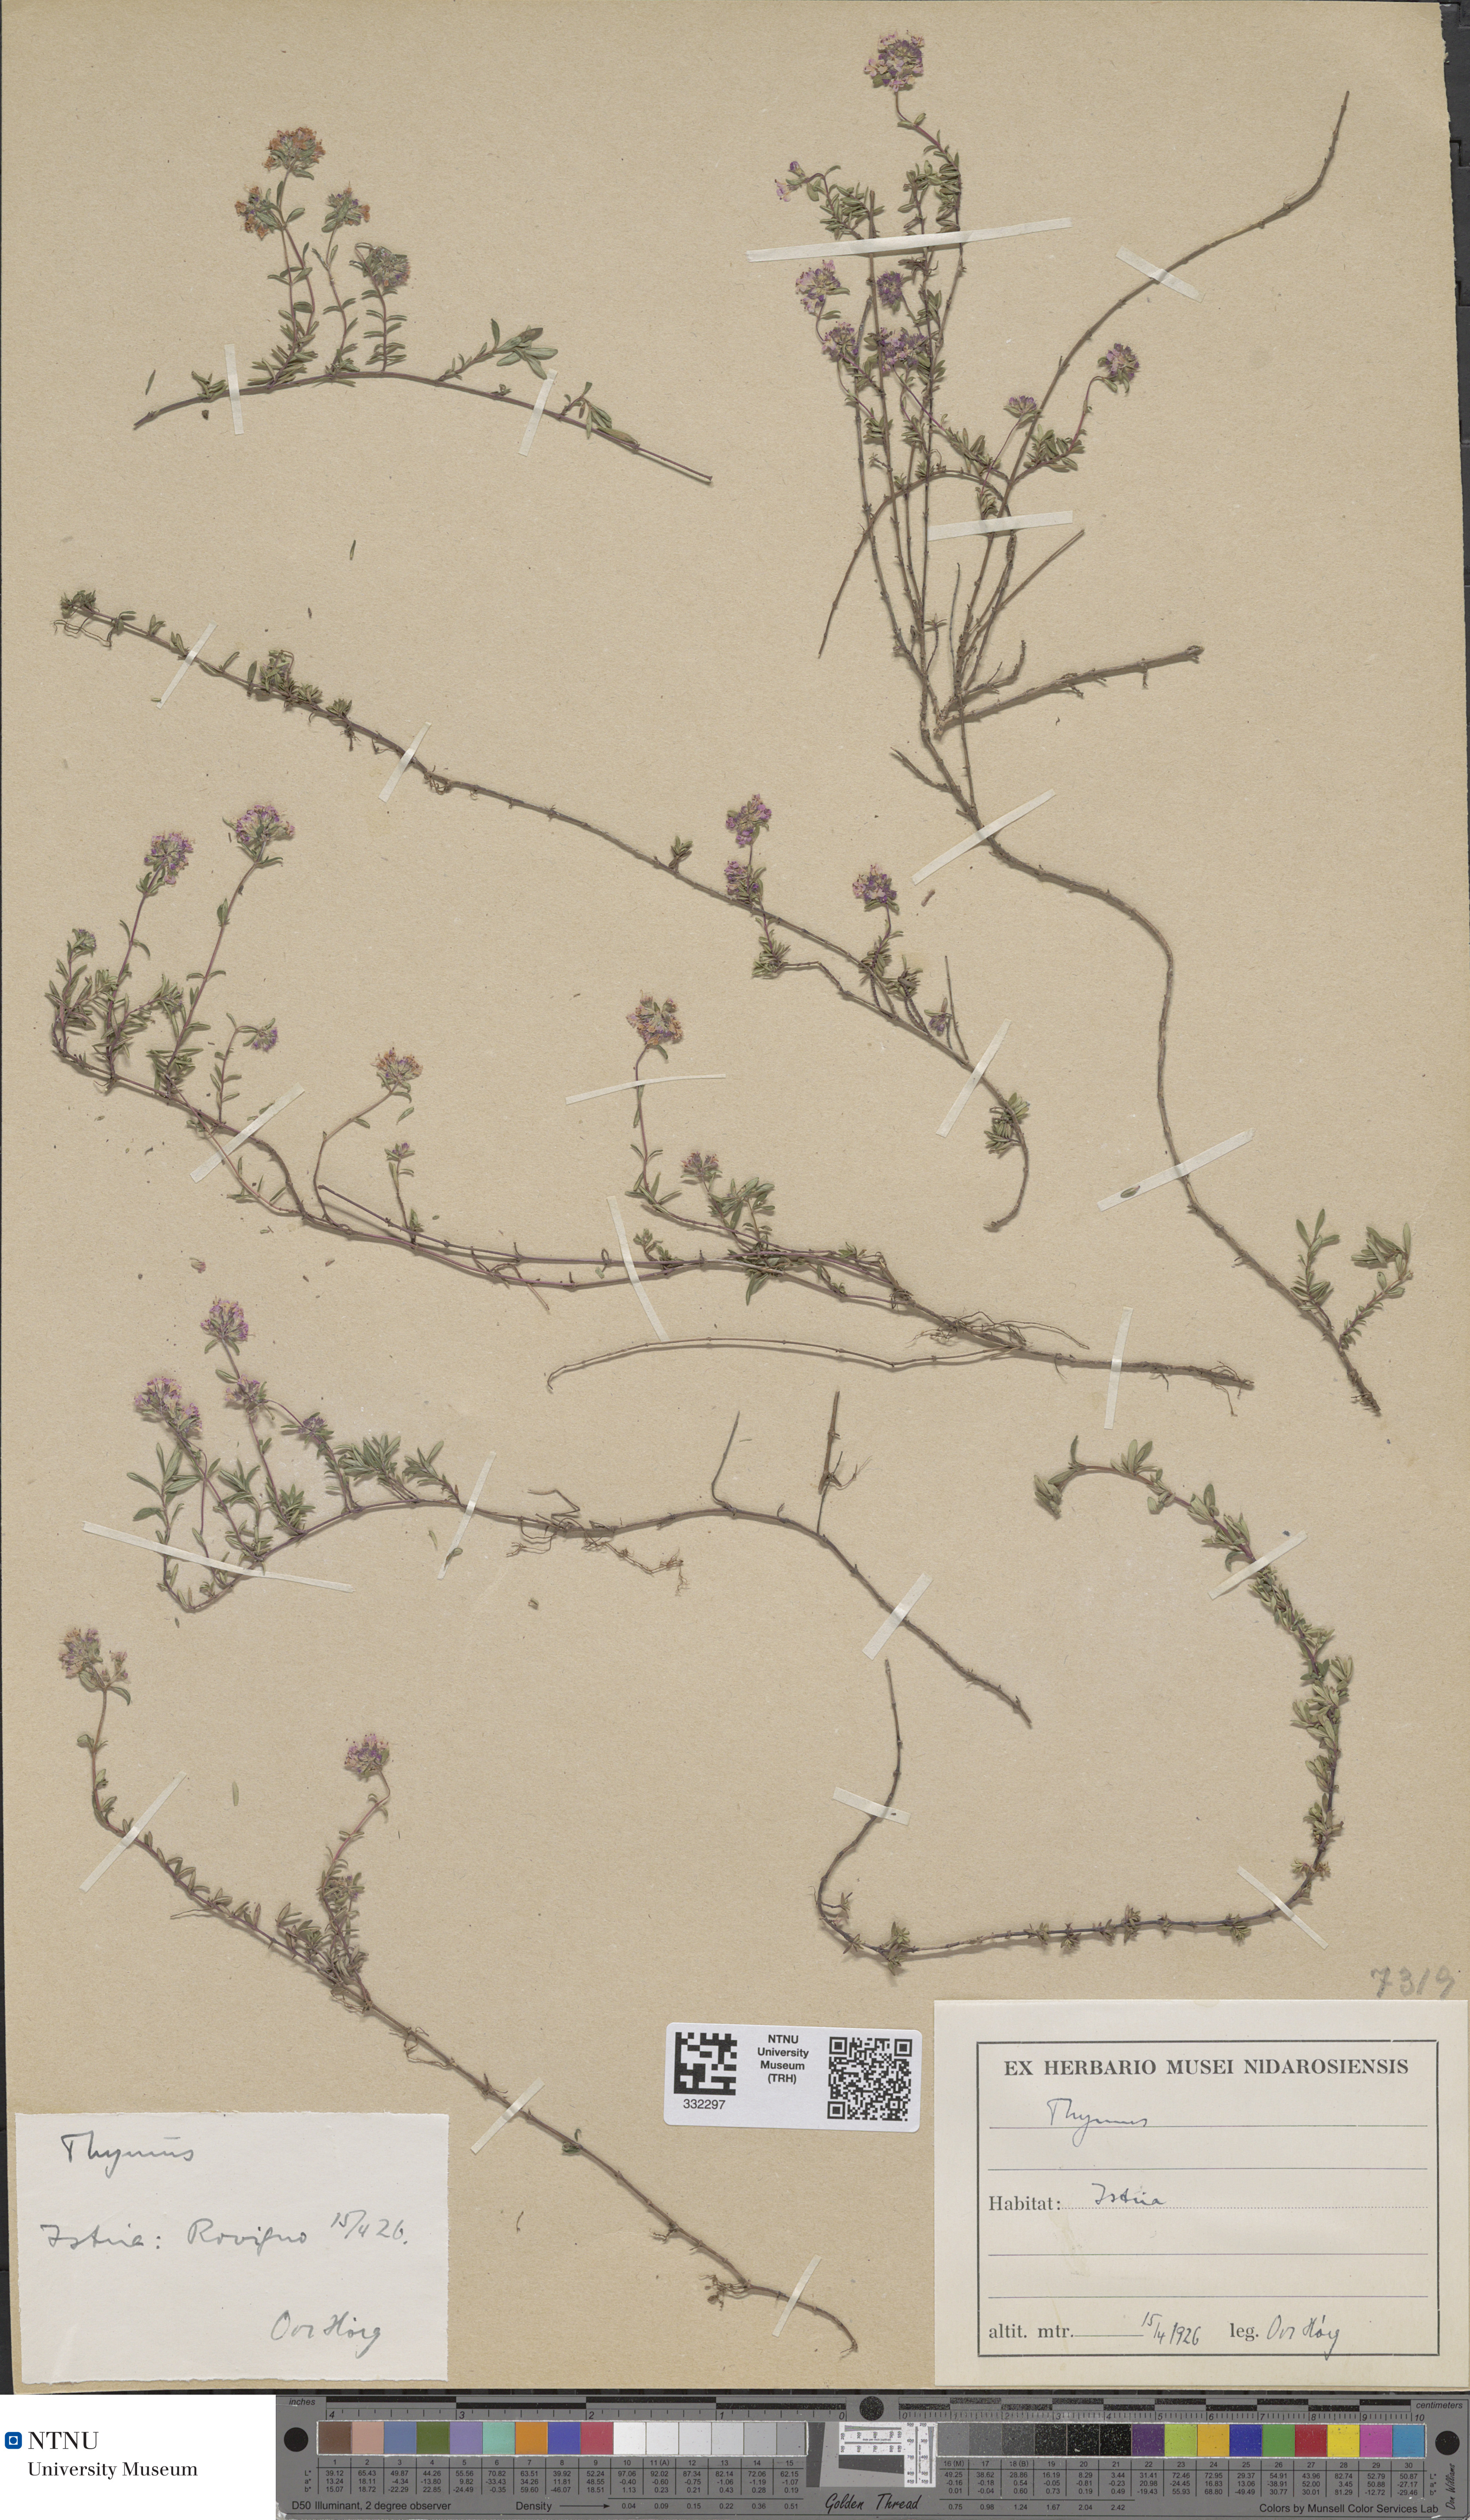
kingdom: Plantae
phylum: Tracheophyta
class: Magnoliopsida
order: Lamiales
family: Lamiaceae
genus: Thymus
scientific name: Thymus
